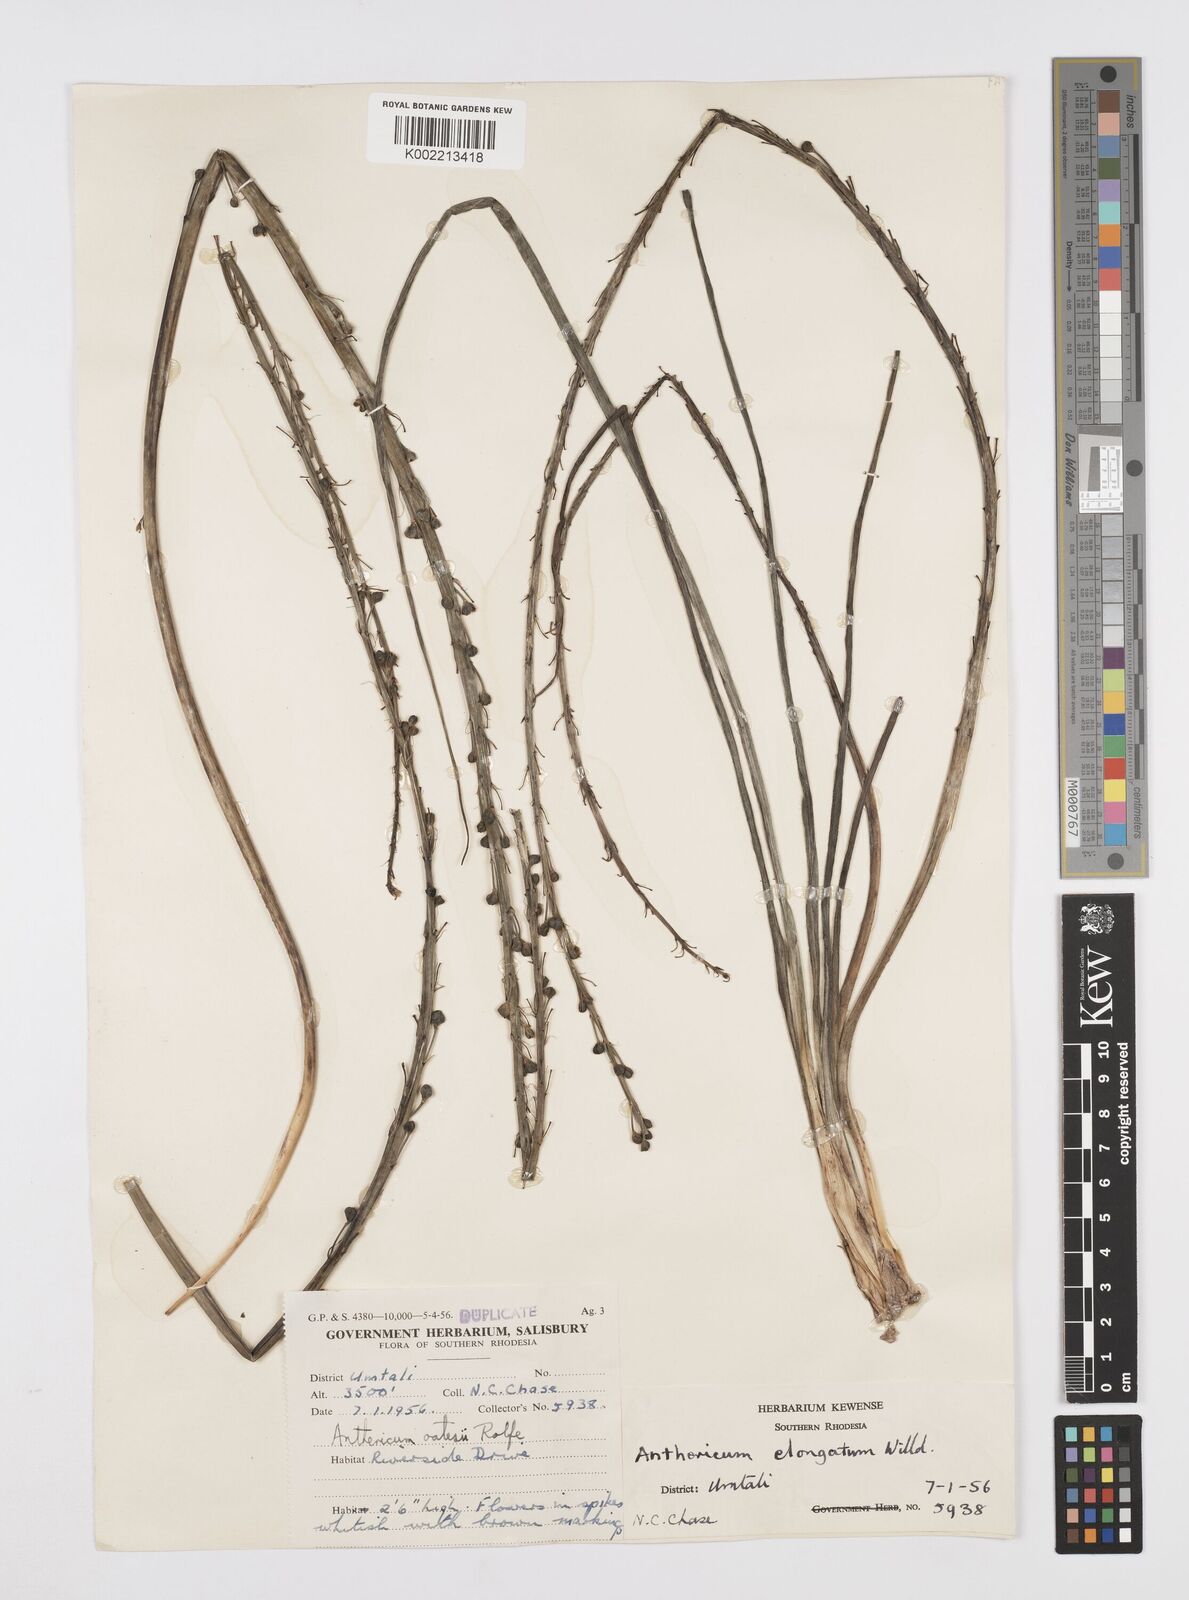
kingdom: Plantae
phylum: Tracheophyta
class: Liliopsida
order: Asparagales
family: Asphodelaceae
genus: Trachyandra
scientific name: Trachyandra saltii
